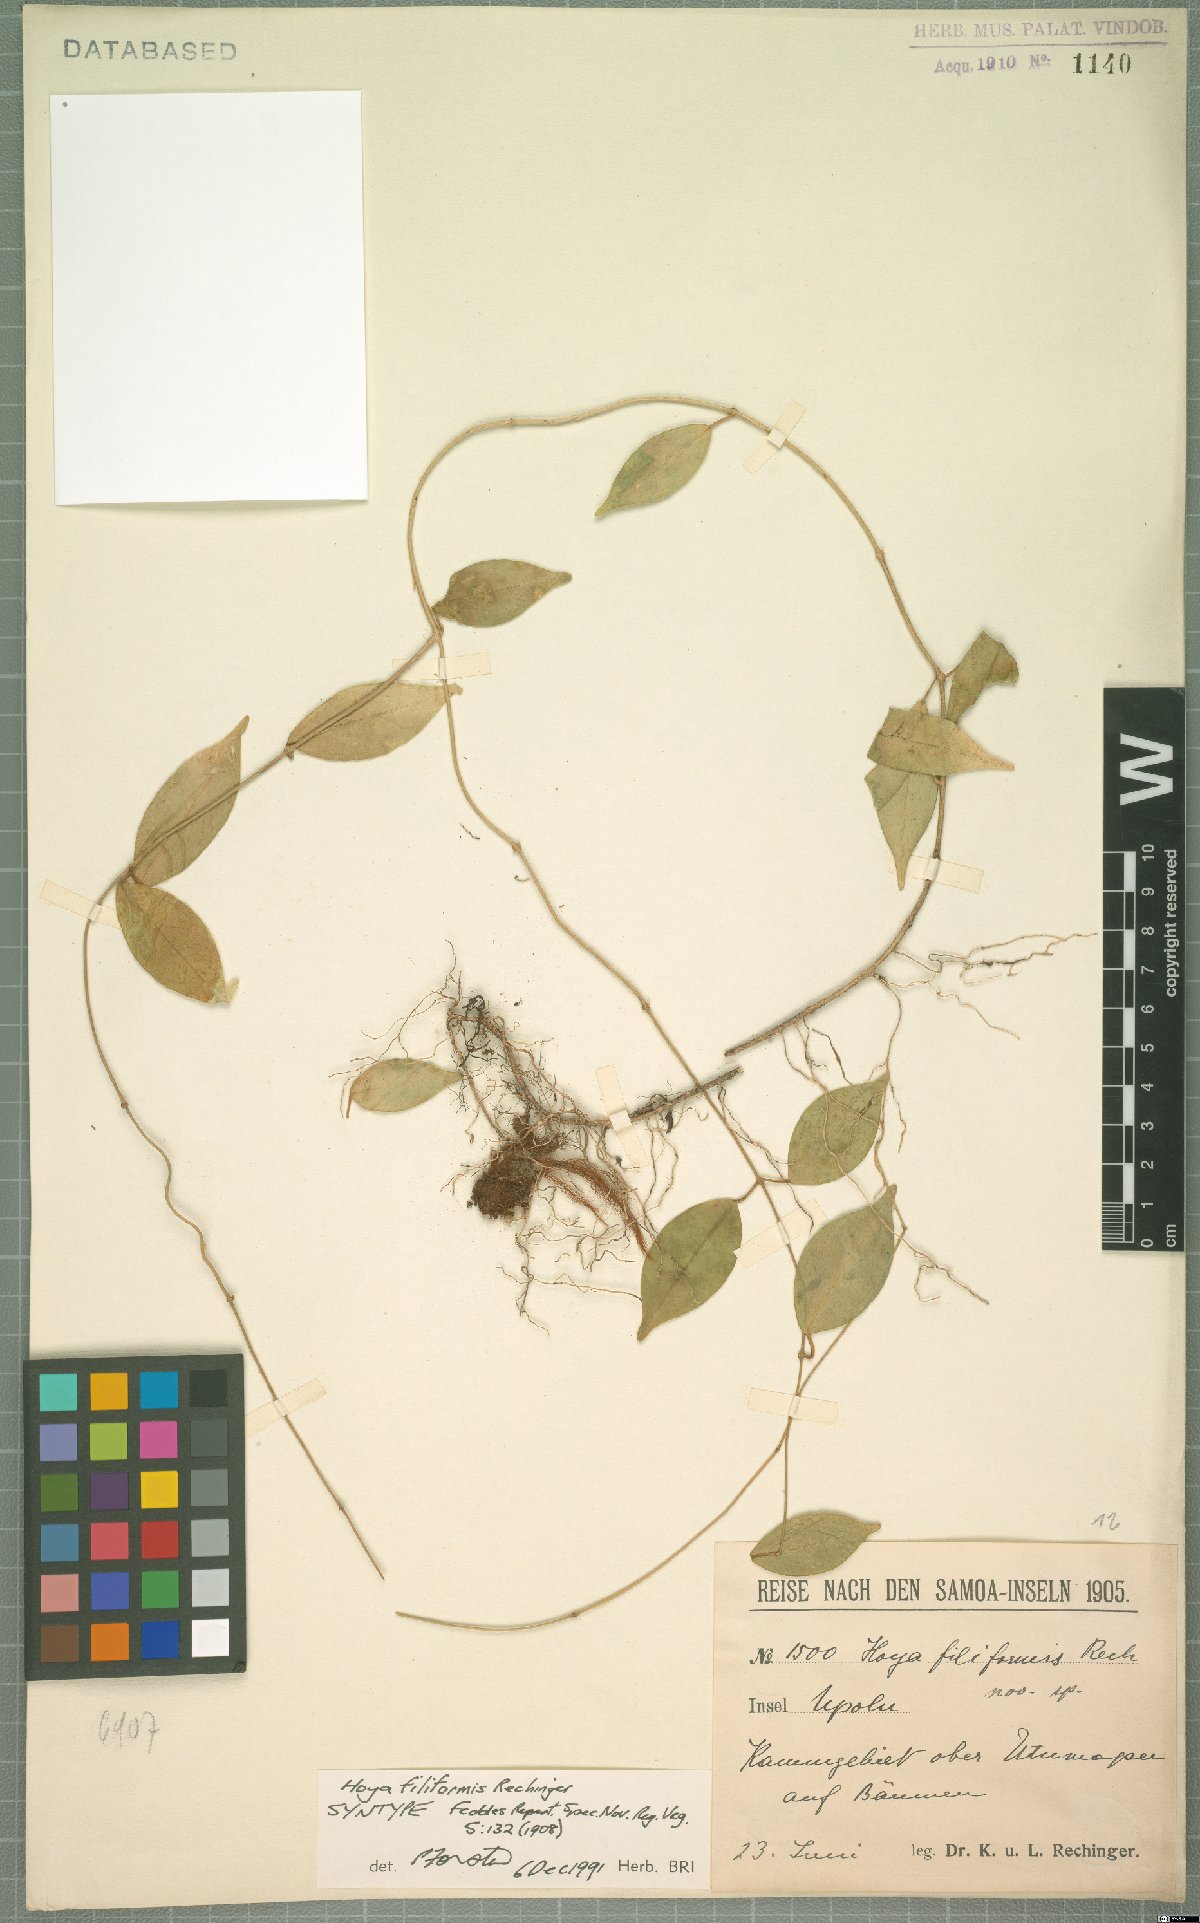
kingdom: Plantae
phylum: Tracheophyta
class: Magnoliopsida
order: Gentianales
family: Apocynaceae
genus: Hoya
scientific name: Hoya filiformis
